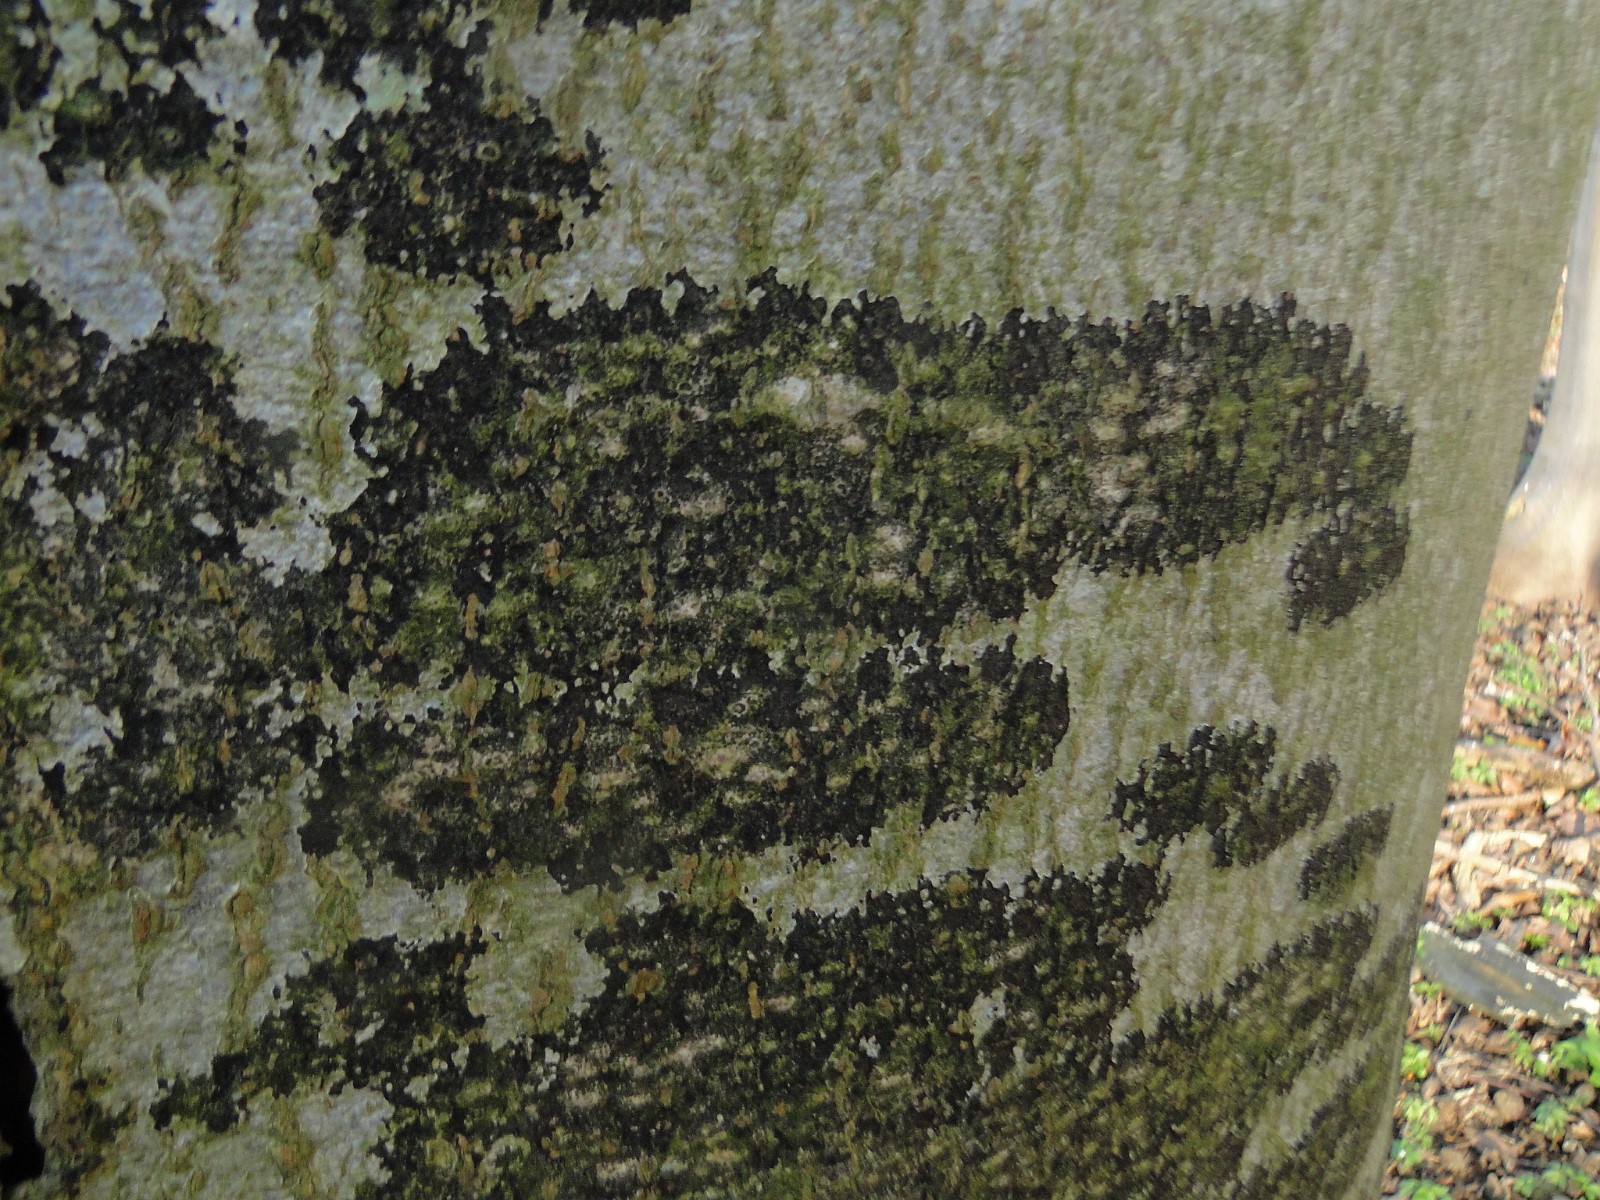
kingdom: Fungi
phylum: Ascomycota
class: Leotiomycetes
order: Rhytismatales
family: Ascodichaenaceae
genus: Ascodichaena
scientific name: Ascodichaena rugosa
